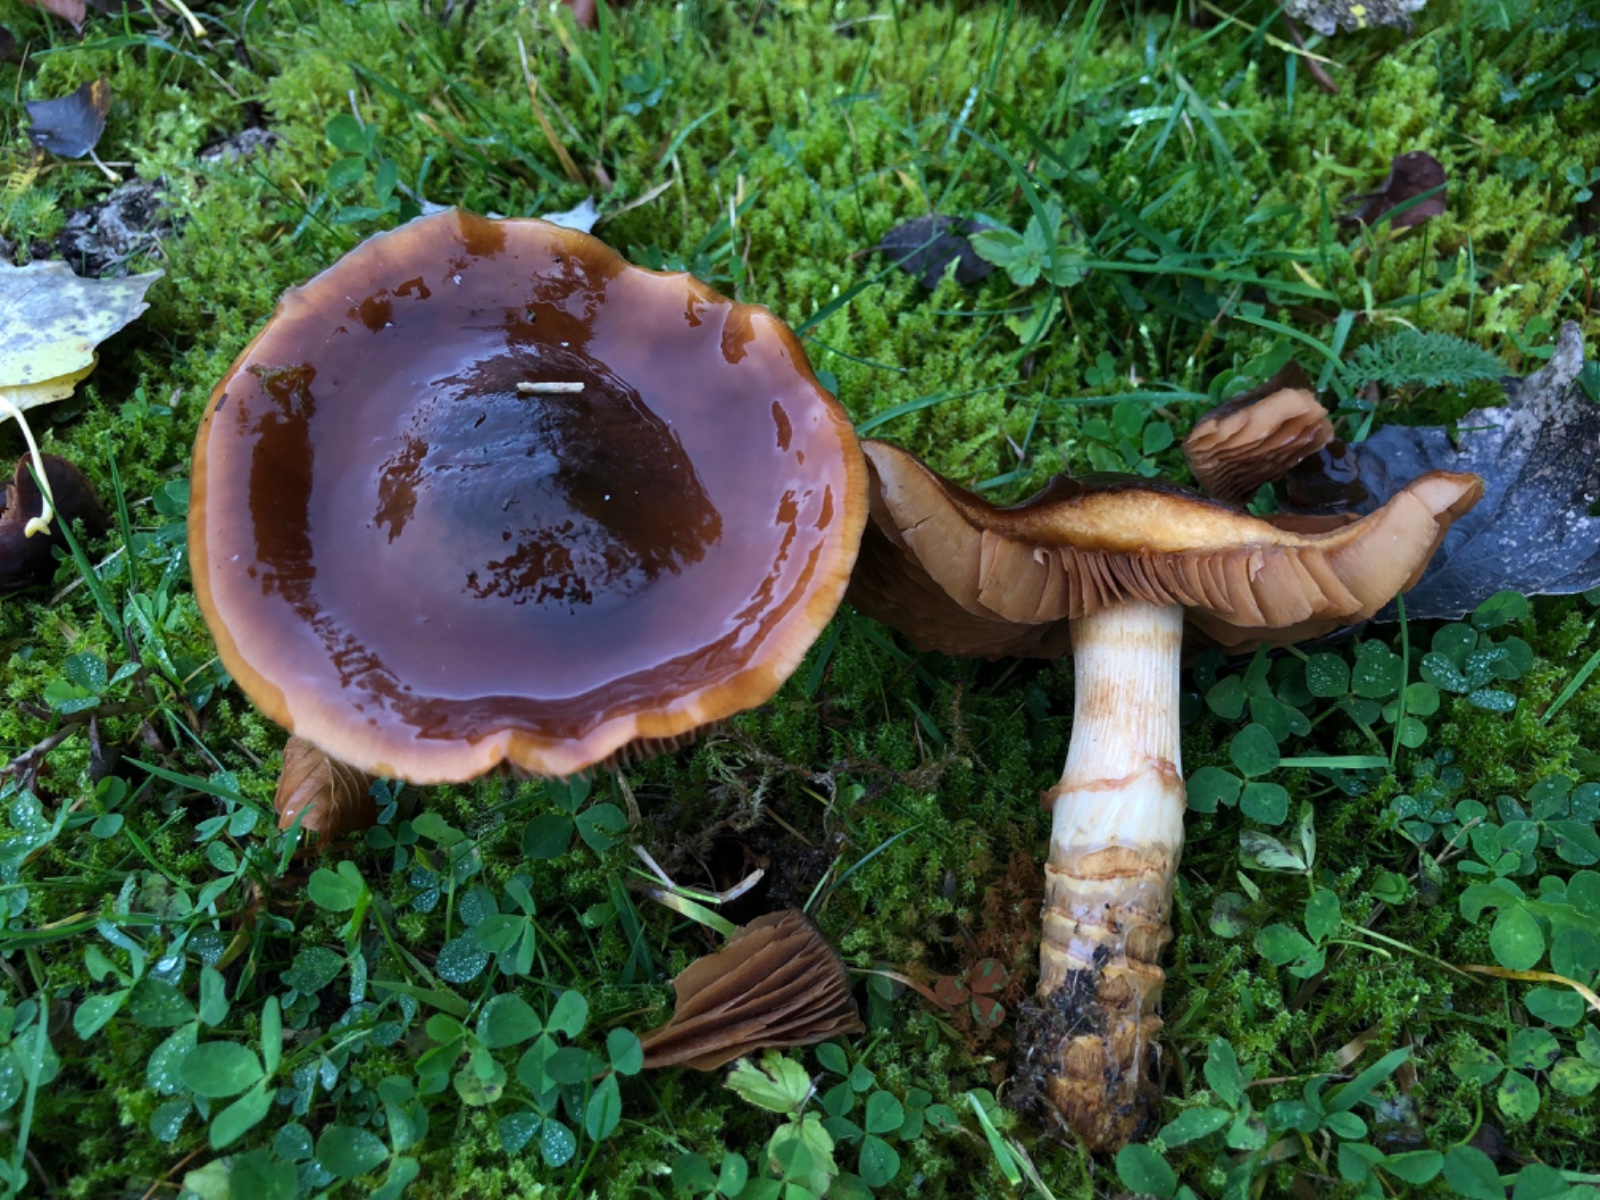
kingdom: Fungi
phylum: Basidiomycota
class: Agaricomycetes
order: Agaricales
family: Cortinariaceae
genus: Cortinarius
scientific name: Cortinarius trivialis
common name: Girdled webcap
